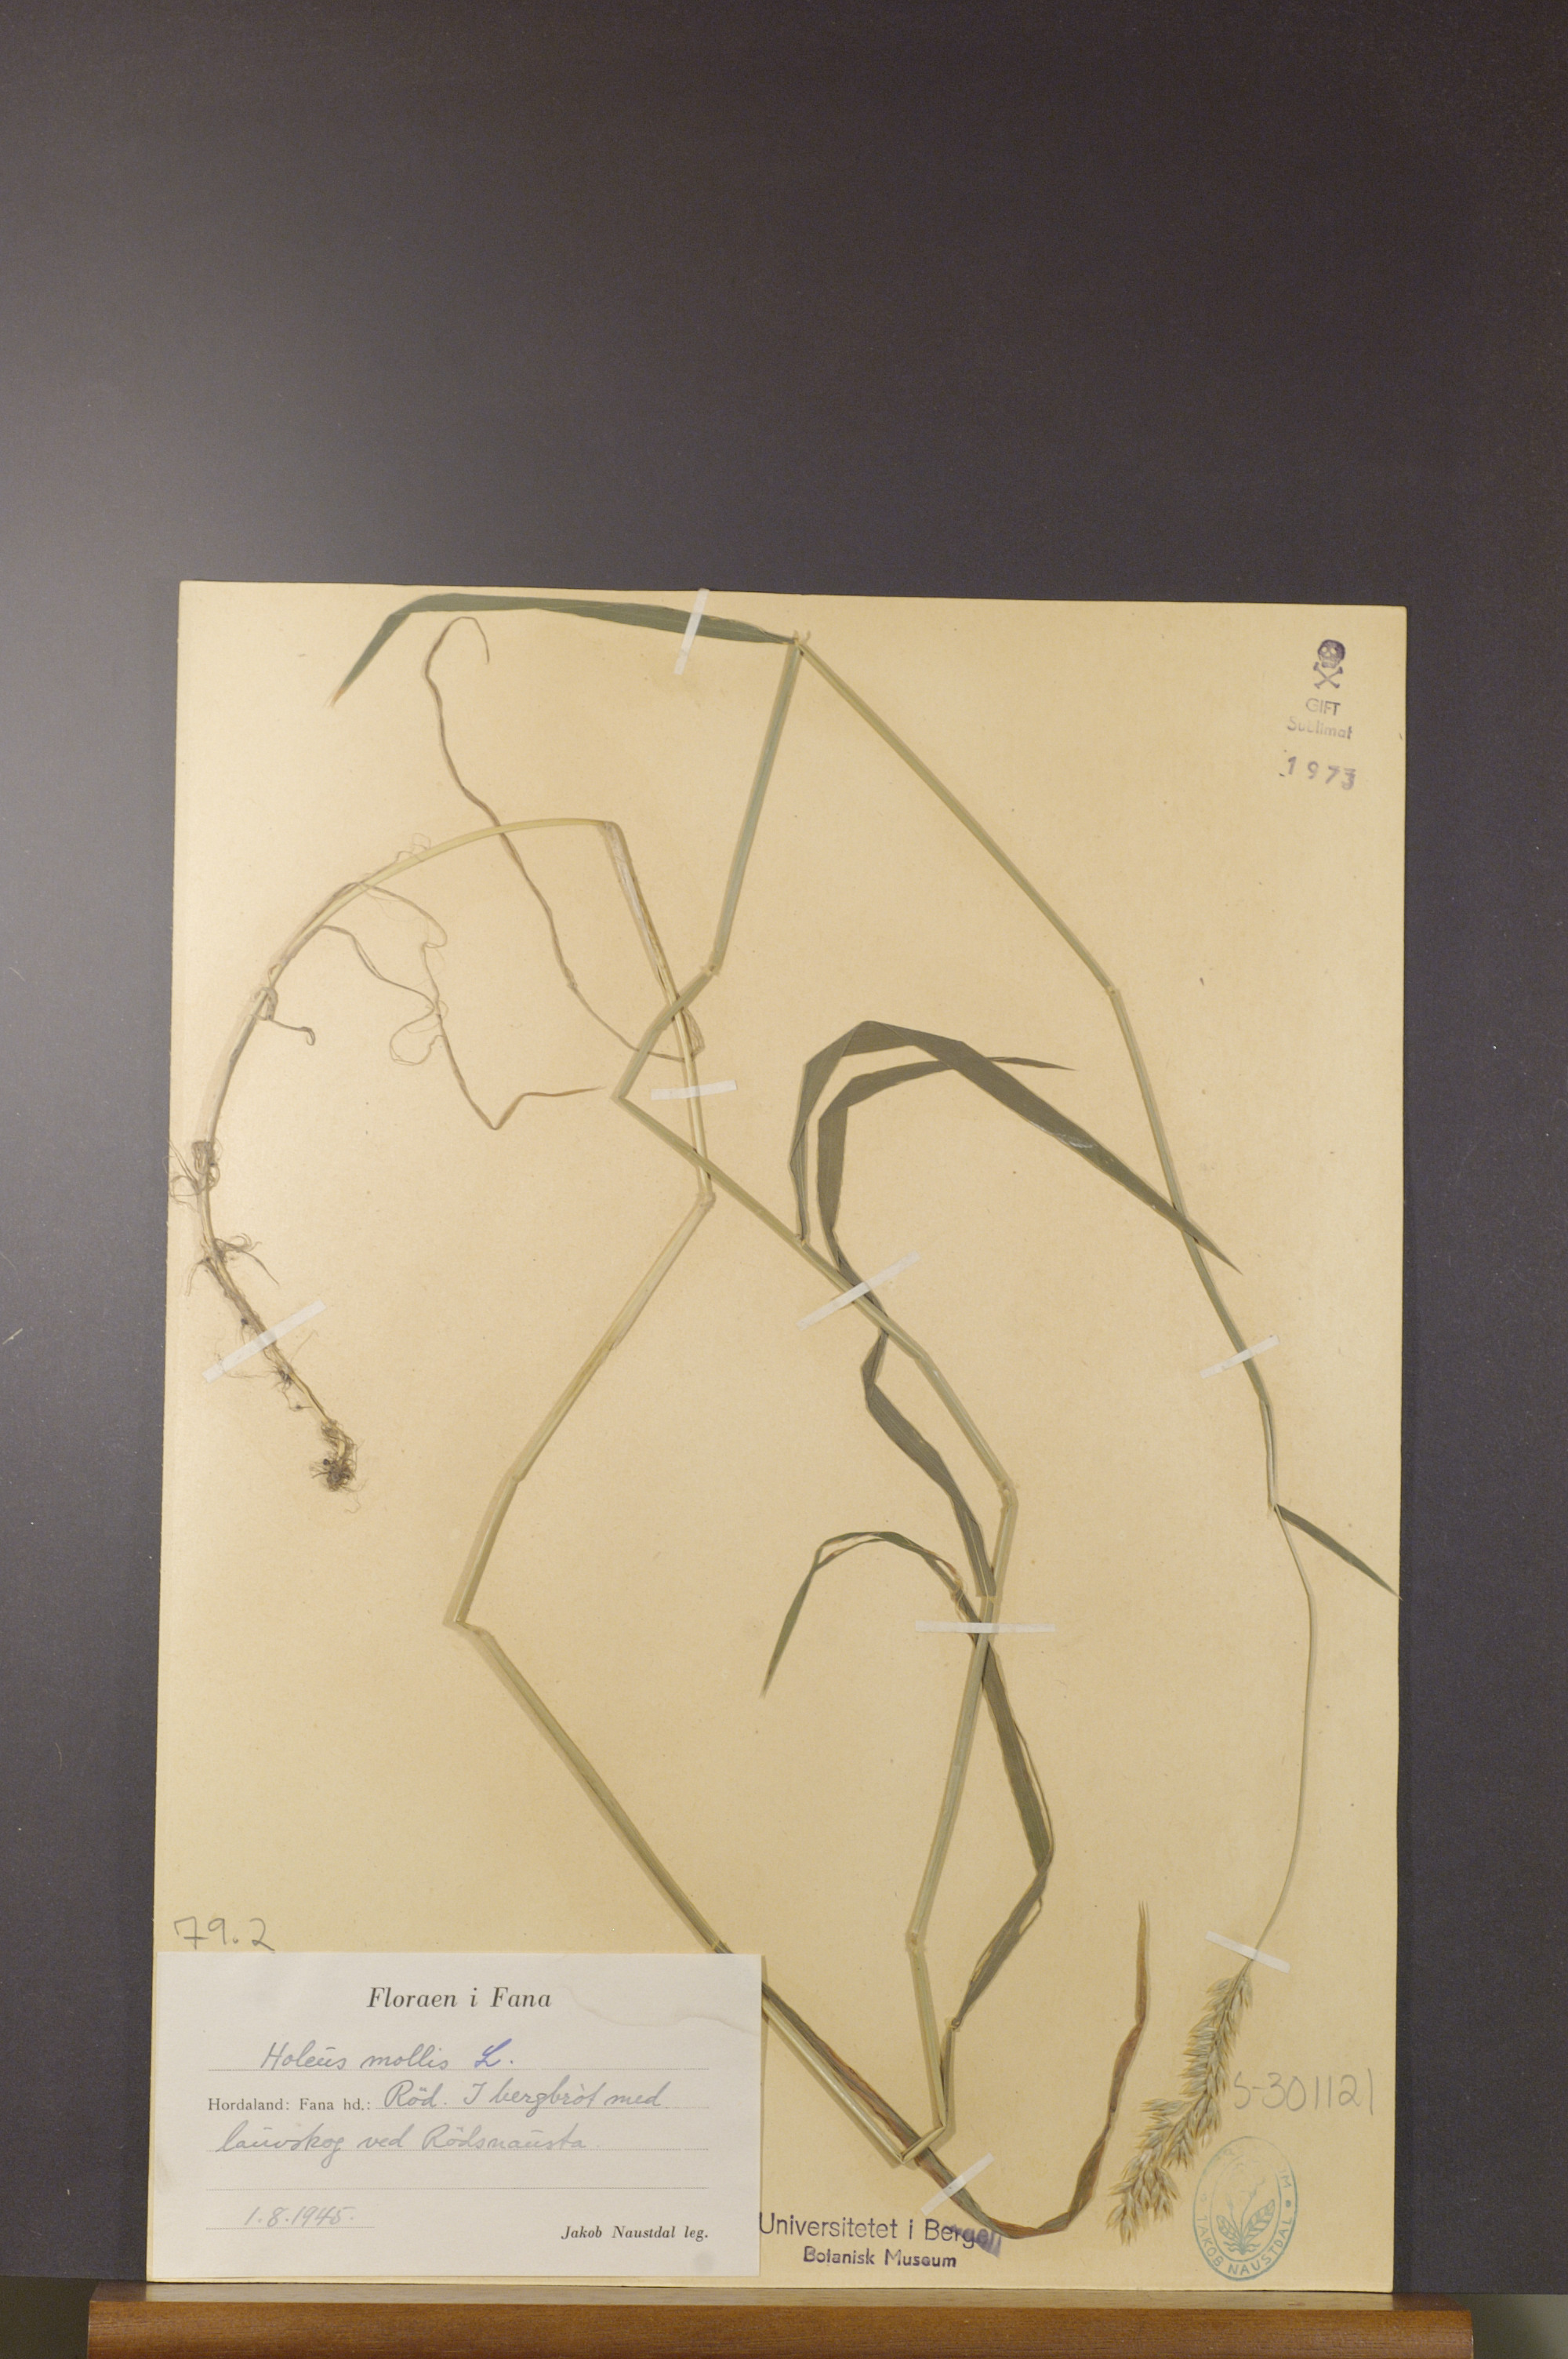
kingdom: Plantae
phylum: Tracheophyta
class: Liliopsida
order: Poales
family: Poaceae
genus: Holcus
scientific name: Holcus mollis
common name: Creeping velvetgrass
